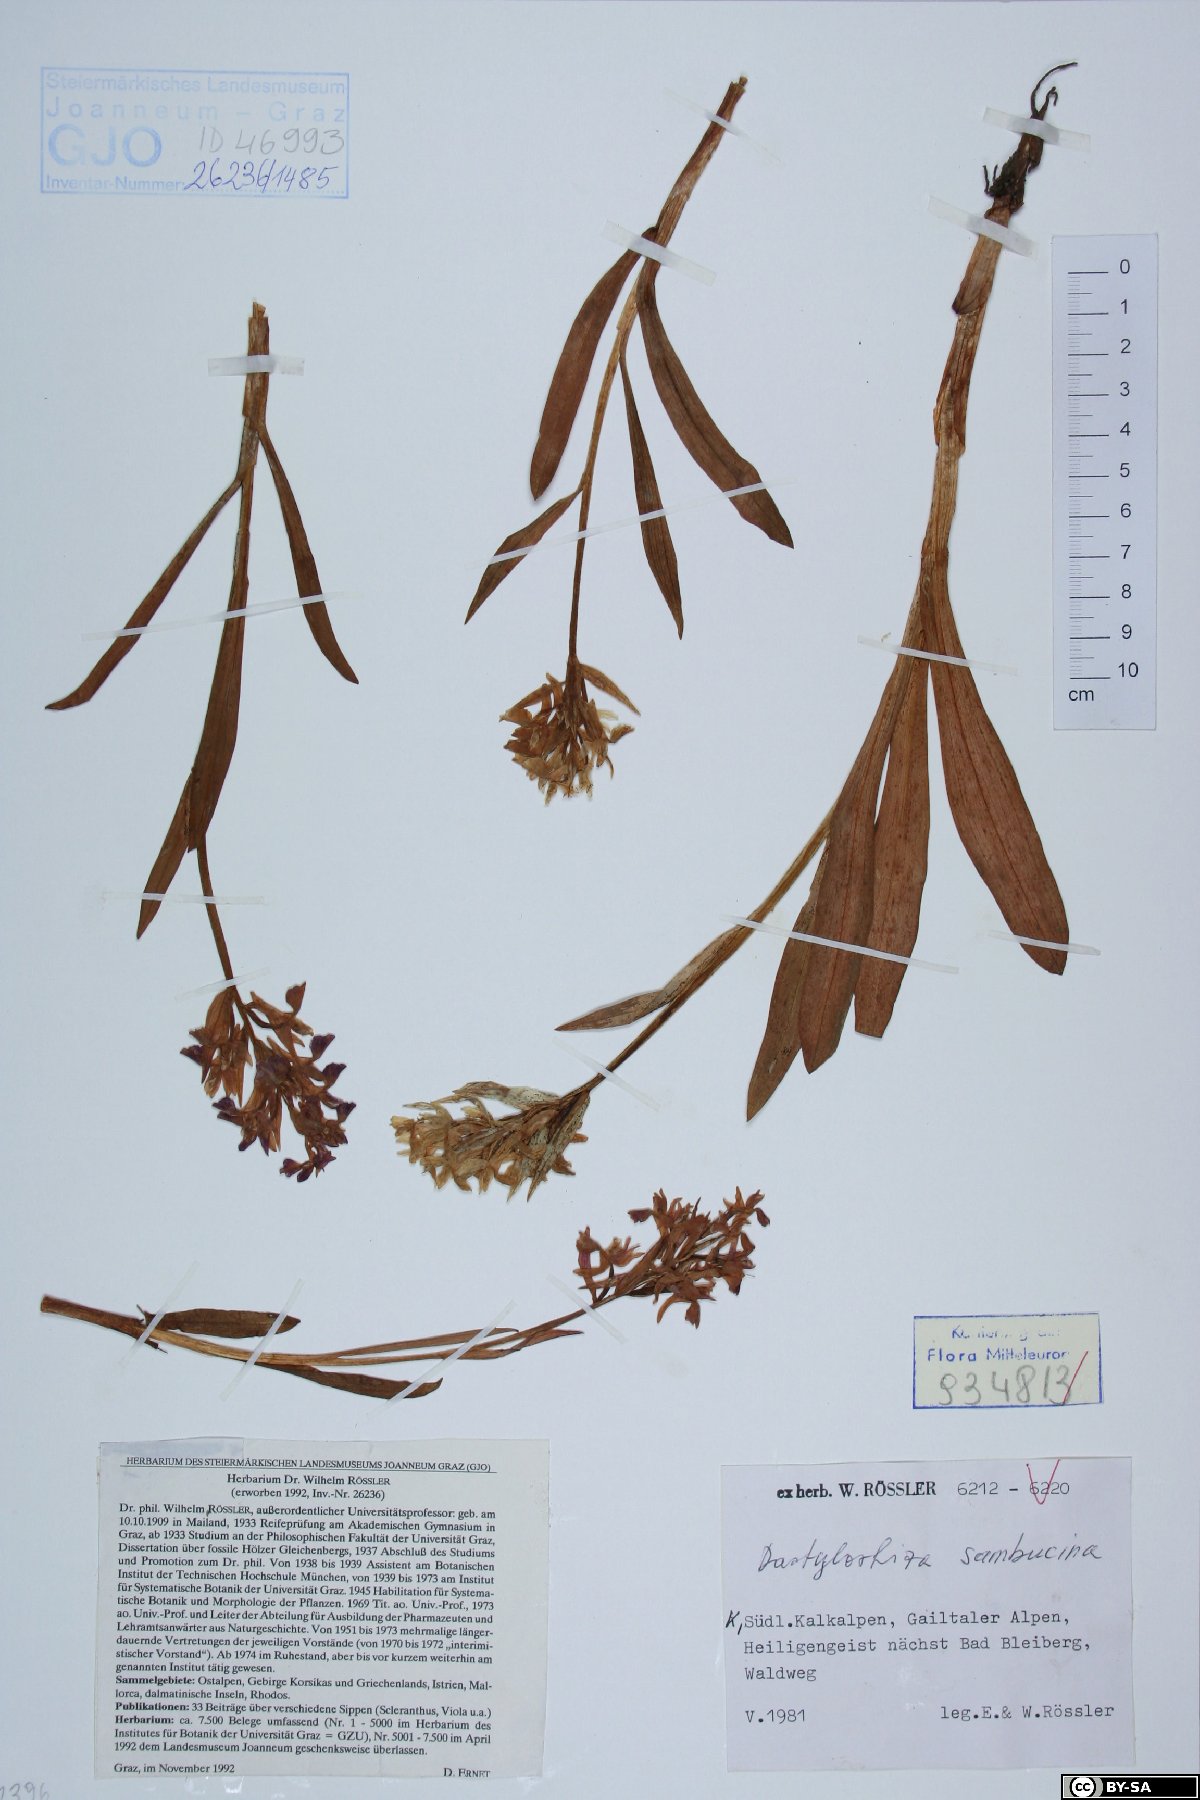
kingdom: Plantae
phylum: Tracheophyta
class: Liliopsida
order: Asparagales
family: Orchidaceae
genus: Dactylorhiza
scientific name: Dactylorhiza sambucina
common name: Elder-flowered orchid
